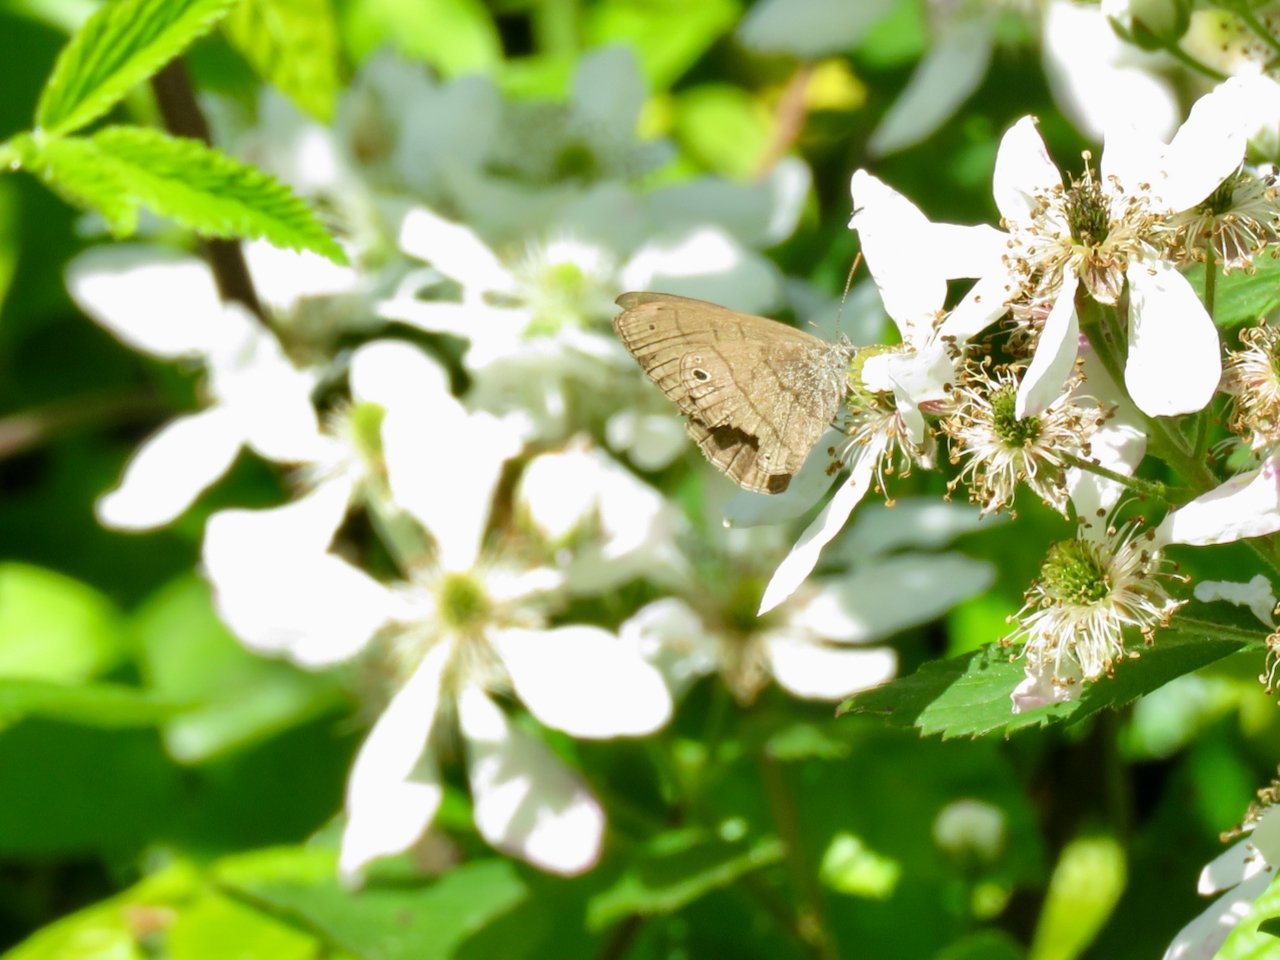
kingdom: Animalia
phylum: Arthropoda
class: Insecta
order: Lepidoptera
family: Nymphalidae
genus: Hermeuptychia
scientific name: Hermeuptychia hermes
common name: Carolina Satyr
